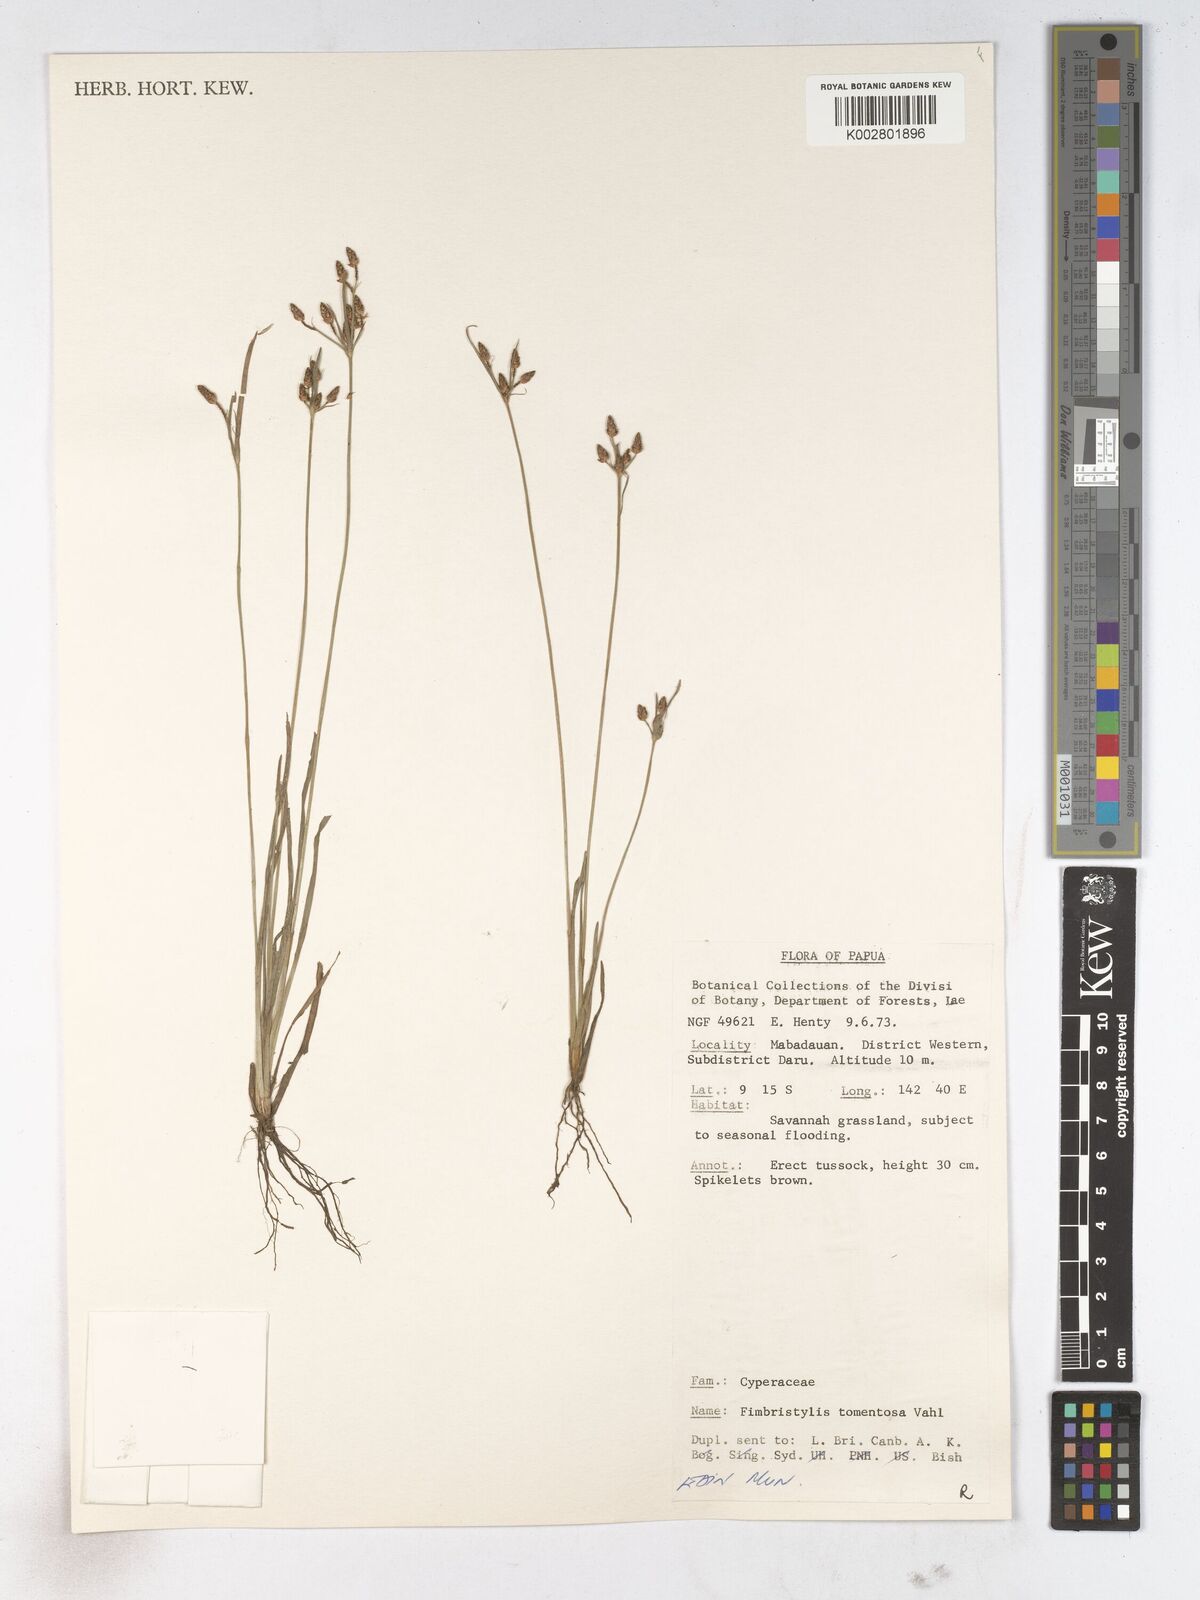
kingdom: Plantae
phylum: Tracheophyta
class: Liliopsida
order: Poales
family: Cyperaceae
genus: Fimbristylis
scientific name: Fimbristylis dichotoma
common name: Forked fimbry
